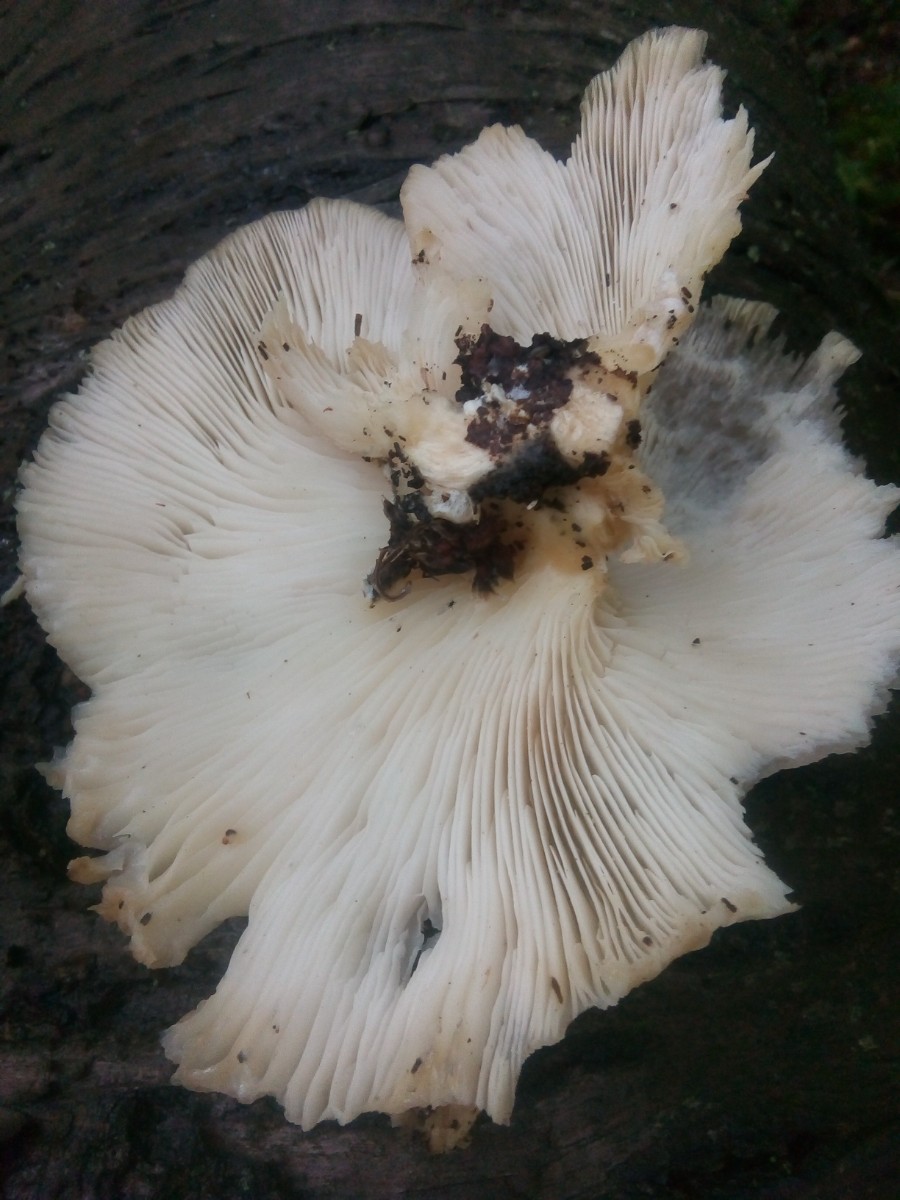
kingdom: Fungi
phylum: Basidiomycota
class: Agaricomycetes
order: Agaricales
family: Pleurotaceae
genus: Pleurotus
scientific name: Pleurotus pulmonarius
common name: sommer-østershat
